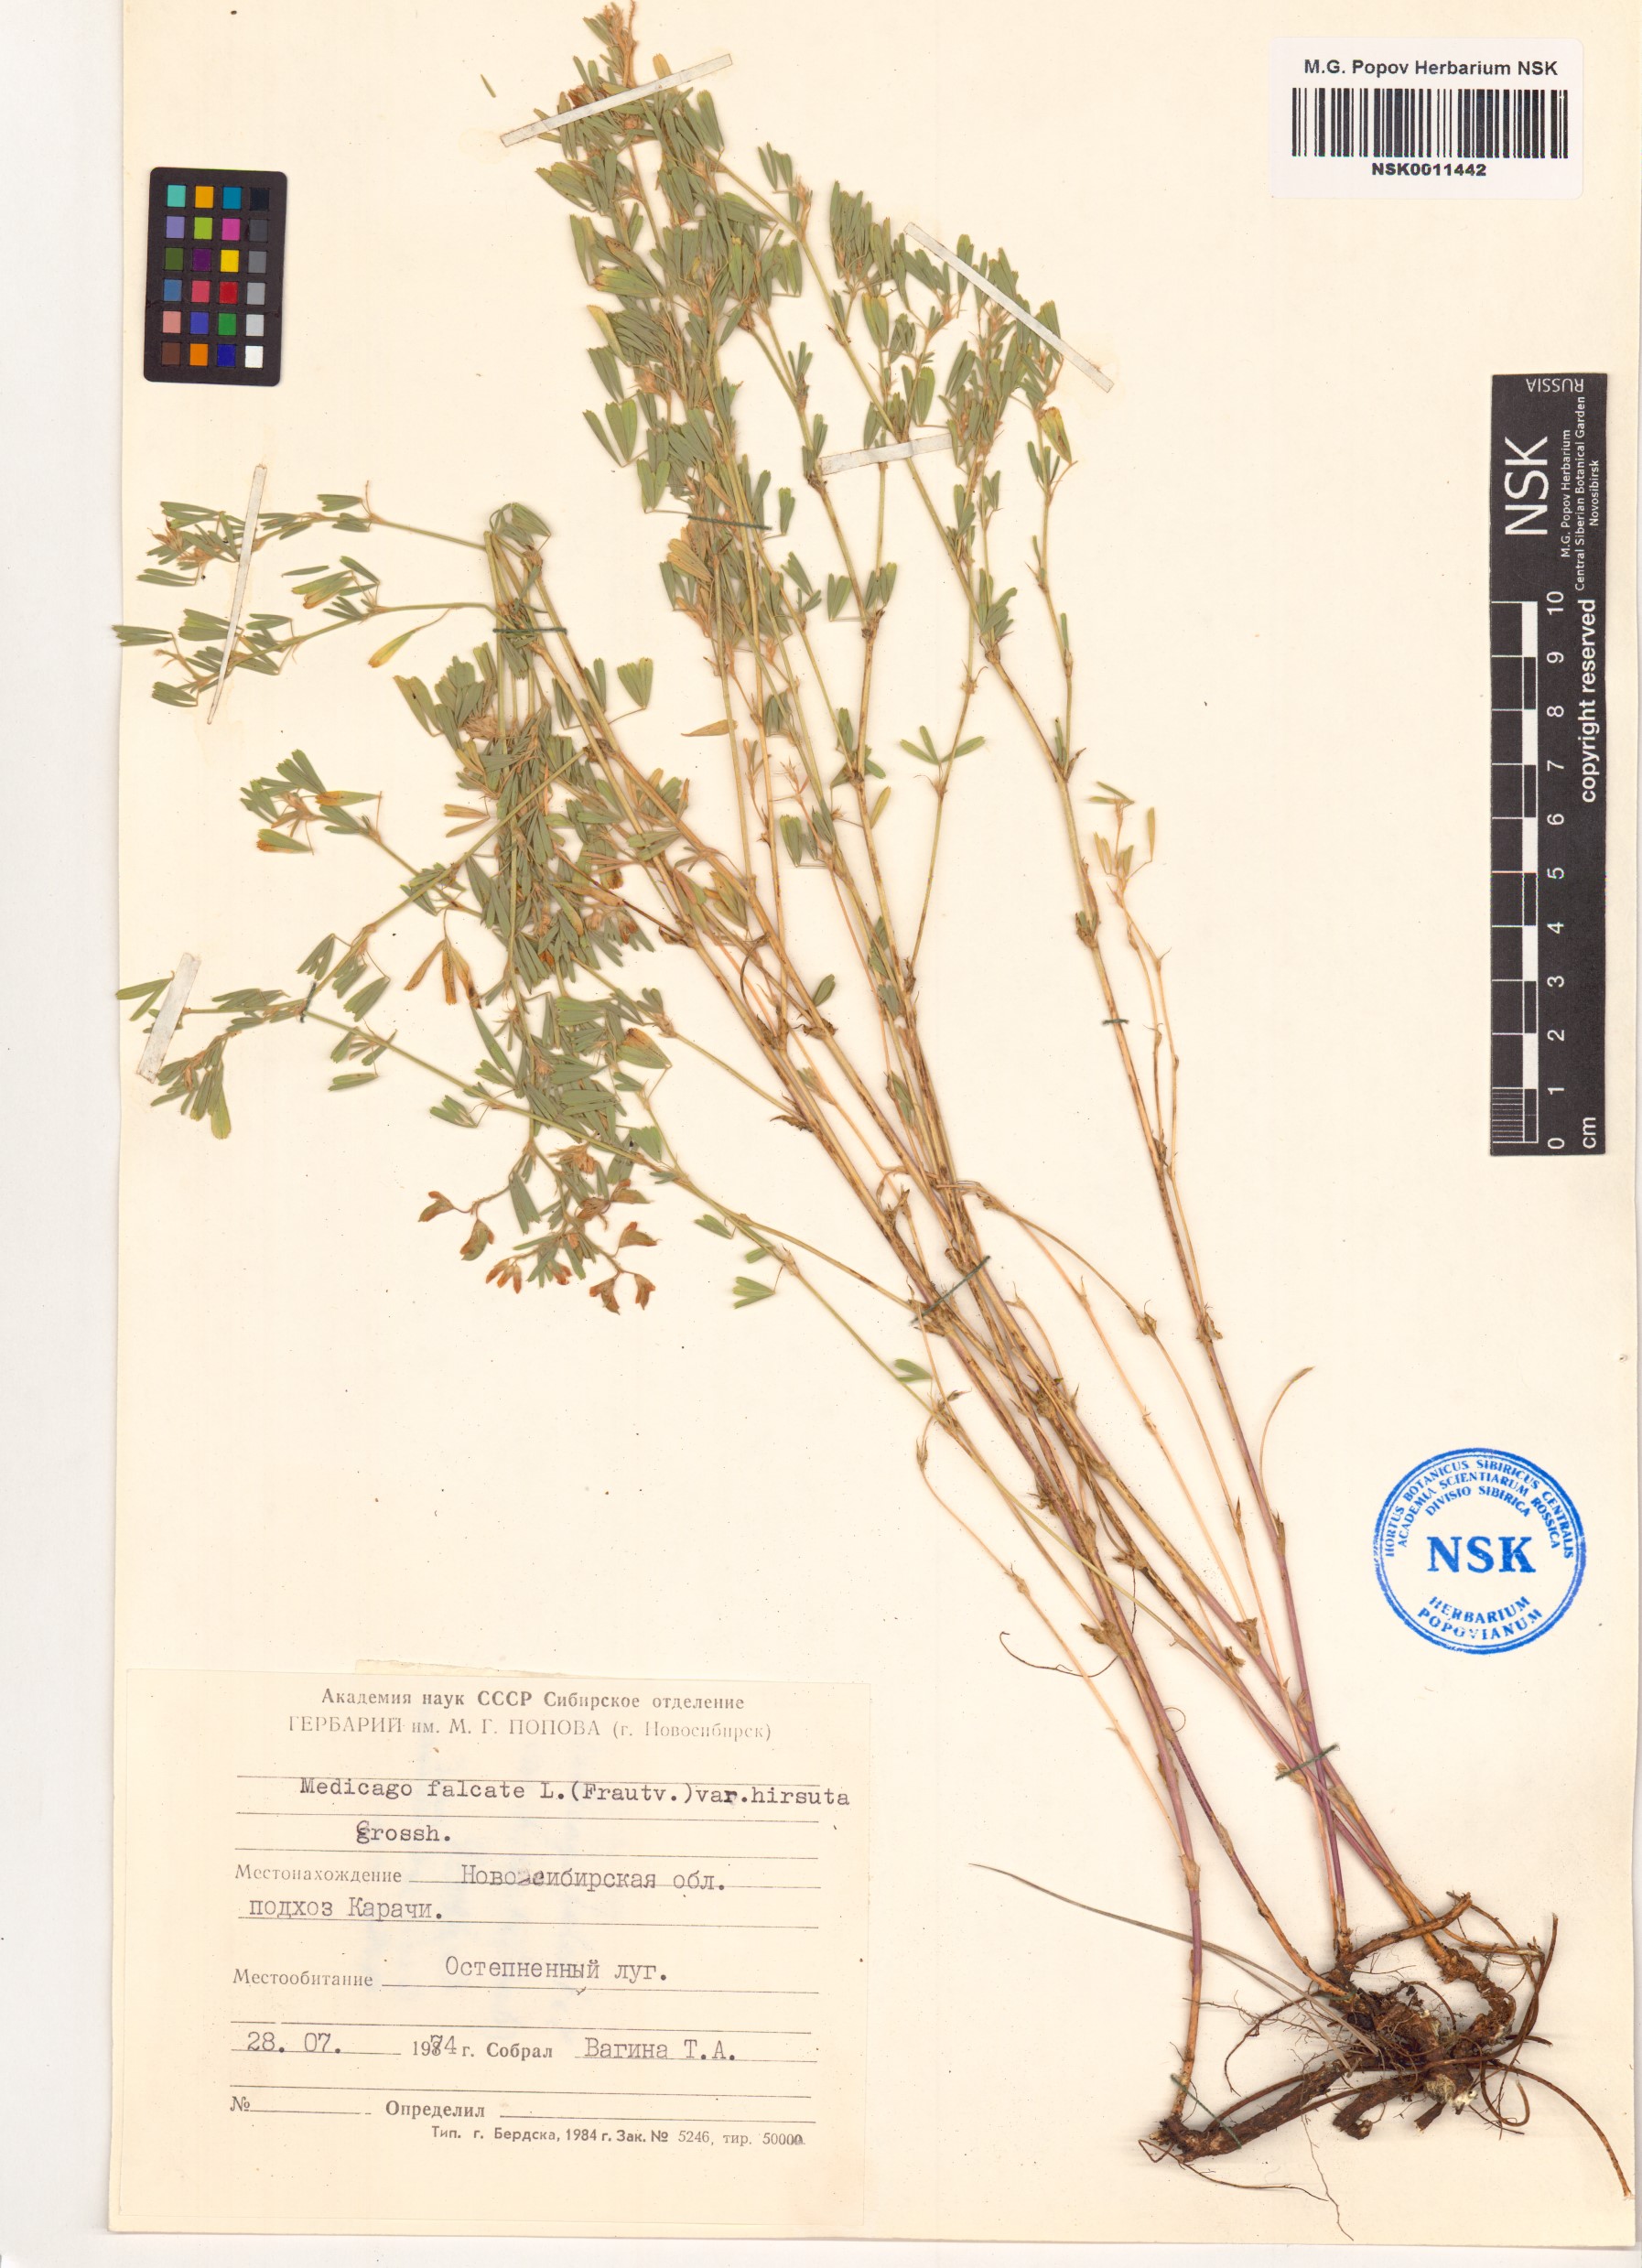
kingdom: Plantae
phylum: Tracheophyta
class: Magnoliopsida
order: Fabales
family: Fabaceae
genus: Medicago
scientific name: Medicago falcata
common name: Sickle medick
